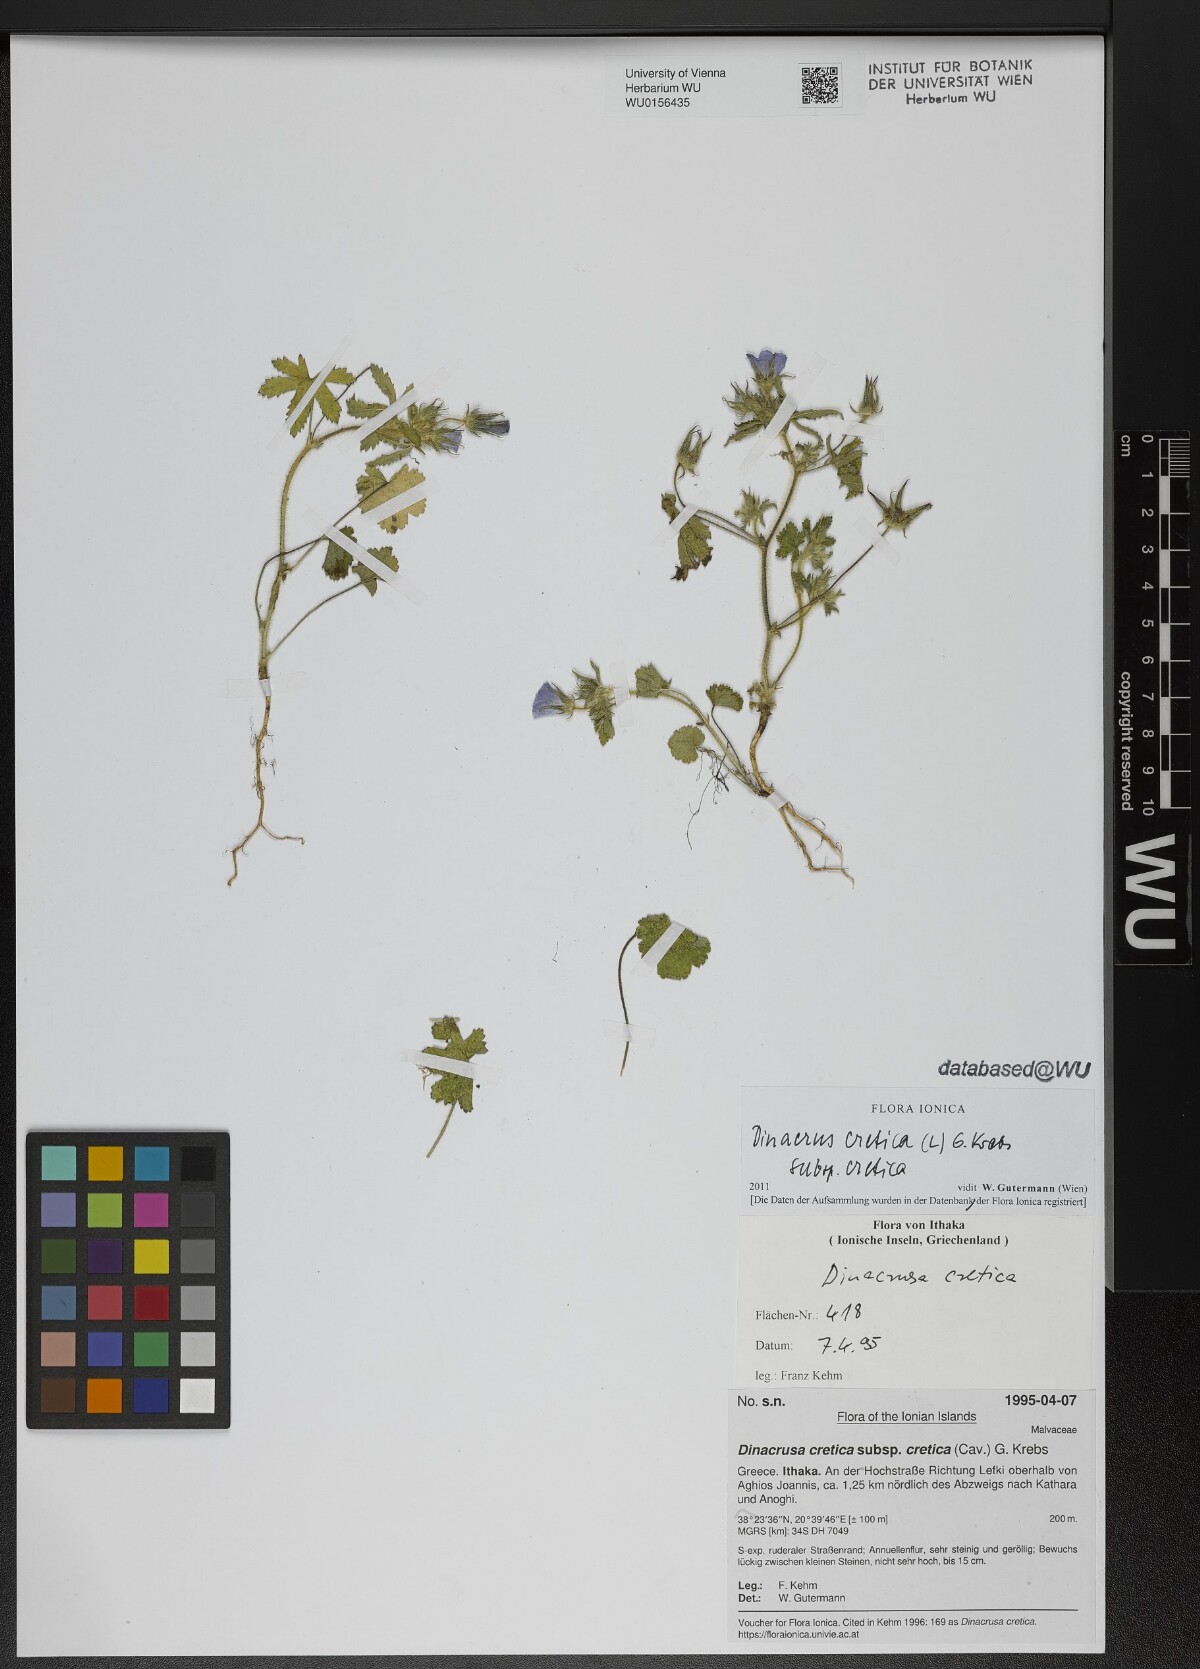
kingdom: Plantae
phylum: Tracheophyta
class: Magnoliopsida
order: Malvales
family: Malvaceae
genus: Malva
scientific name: Malva cretica
